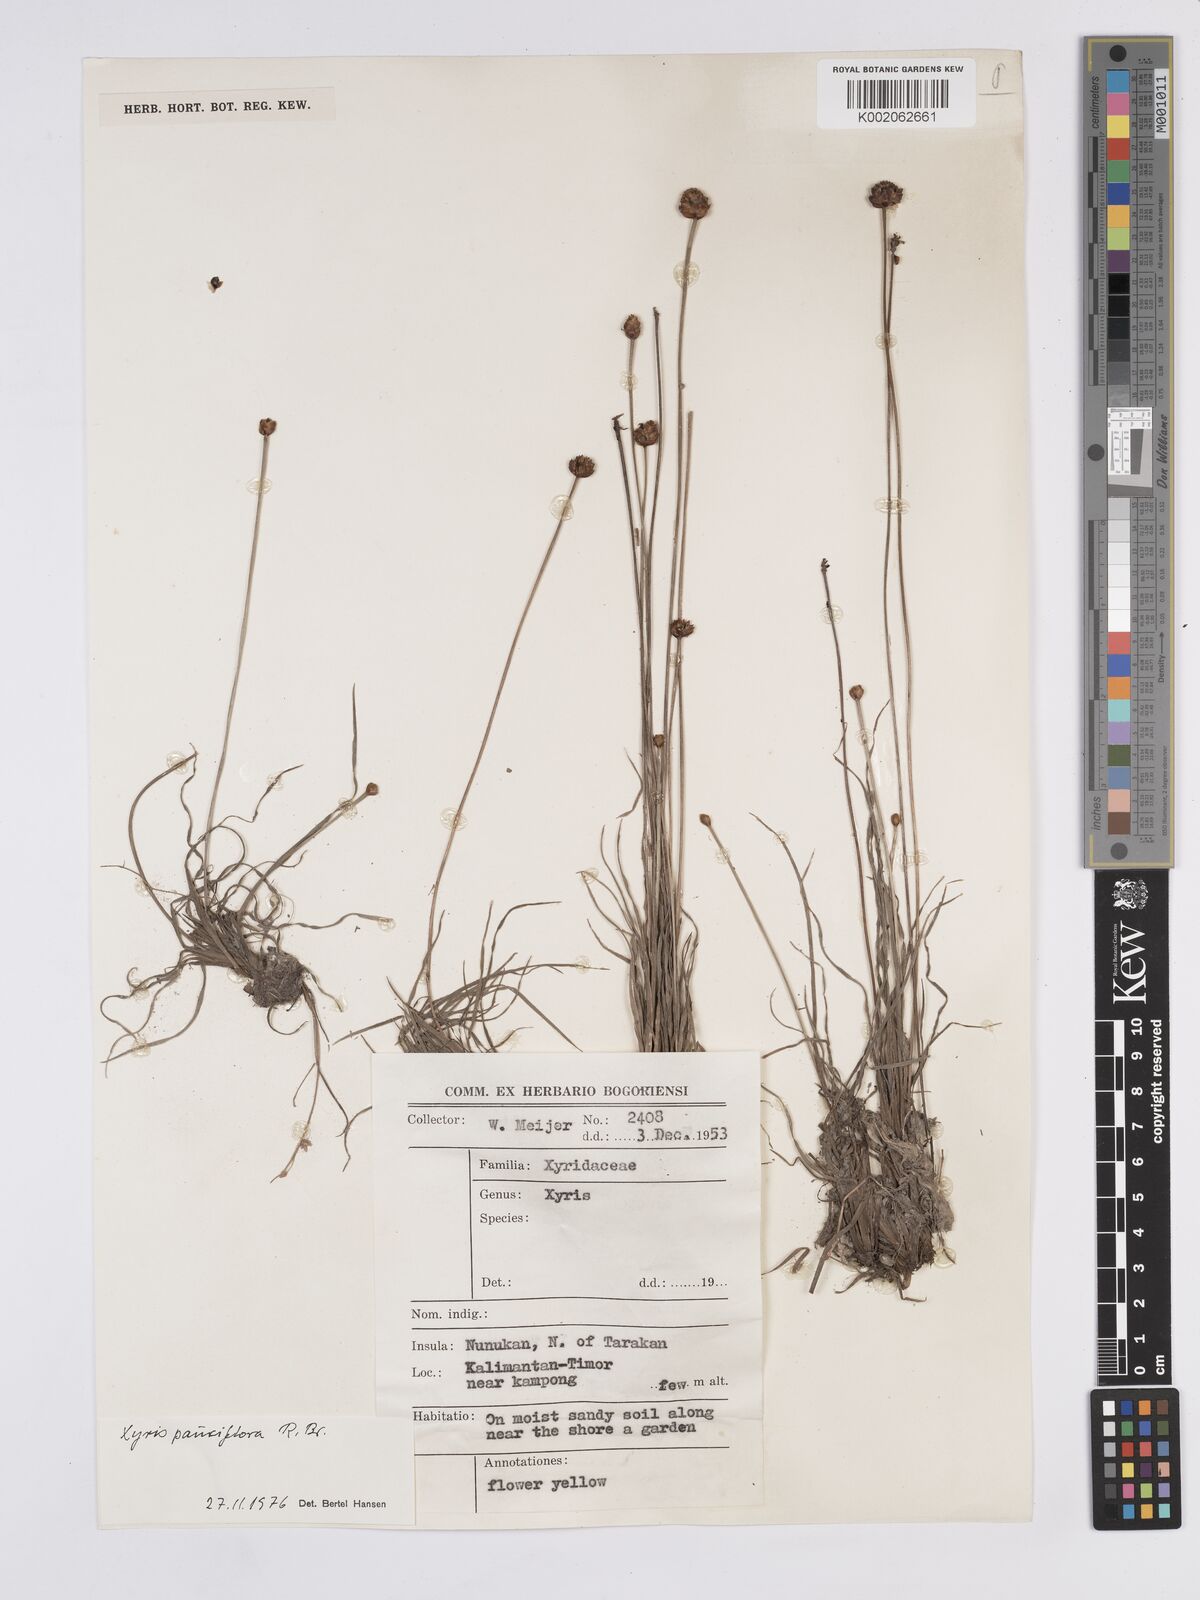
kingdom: Plantae
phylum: Tracheophyta
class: Liliopsida
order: Poales
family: Xyridaceae
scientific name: Xyridaceae
